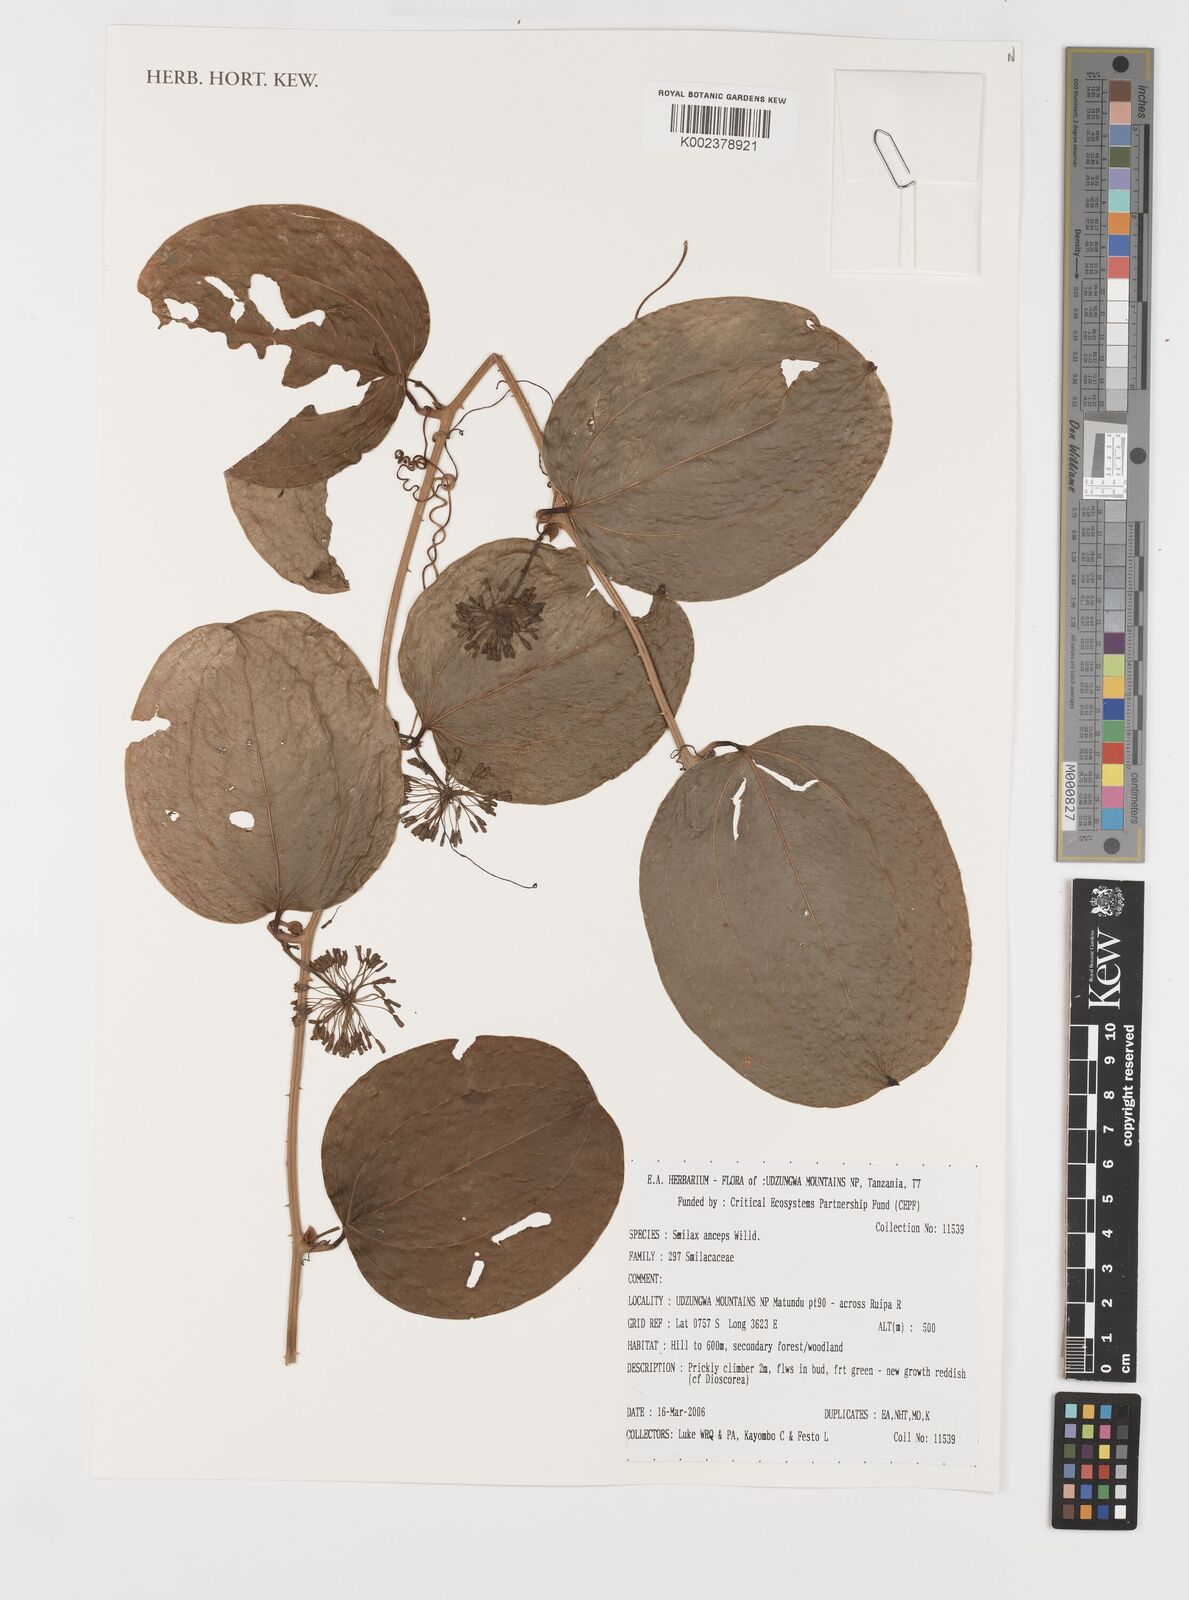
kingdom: Plantae
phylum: Tracheophyta
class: Liliopsida
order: Liliales
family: Smilacaceae
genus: Smilax
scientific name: Smilax anceps
